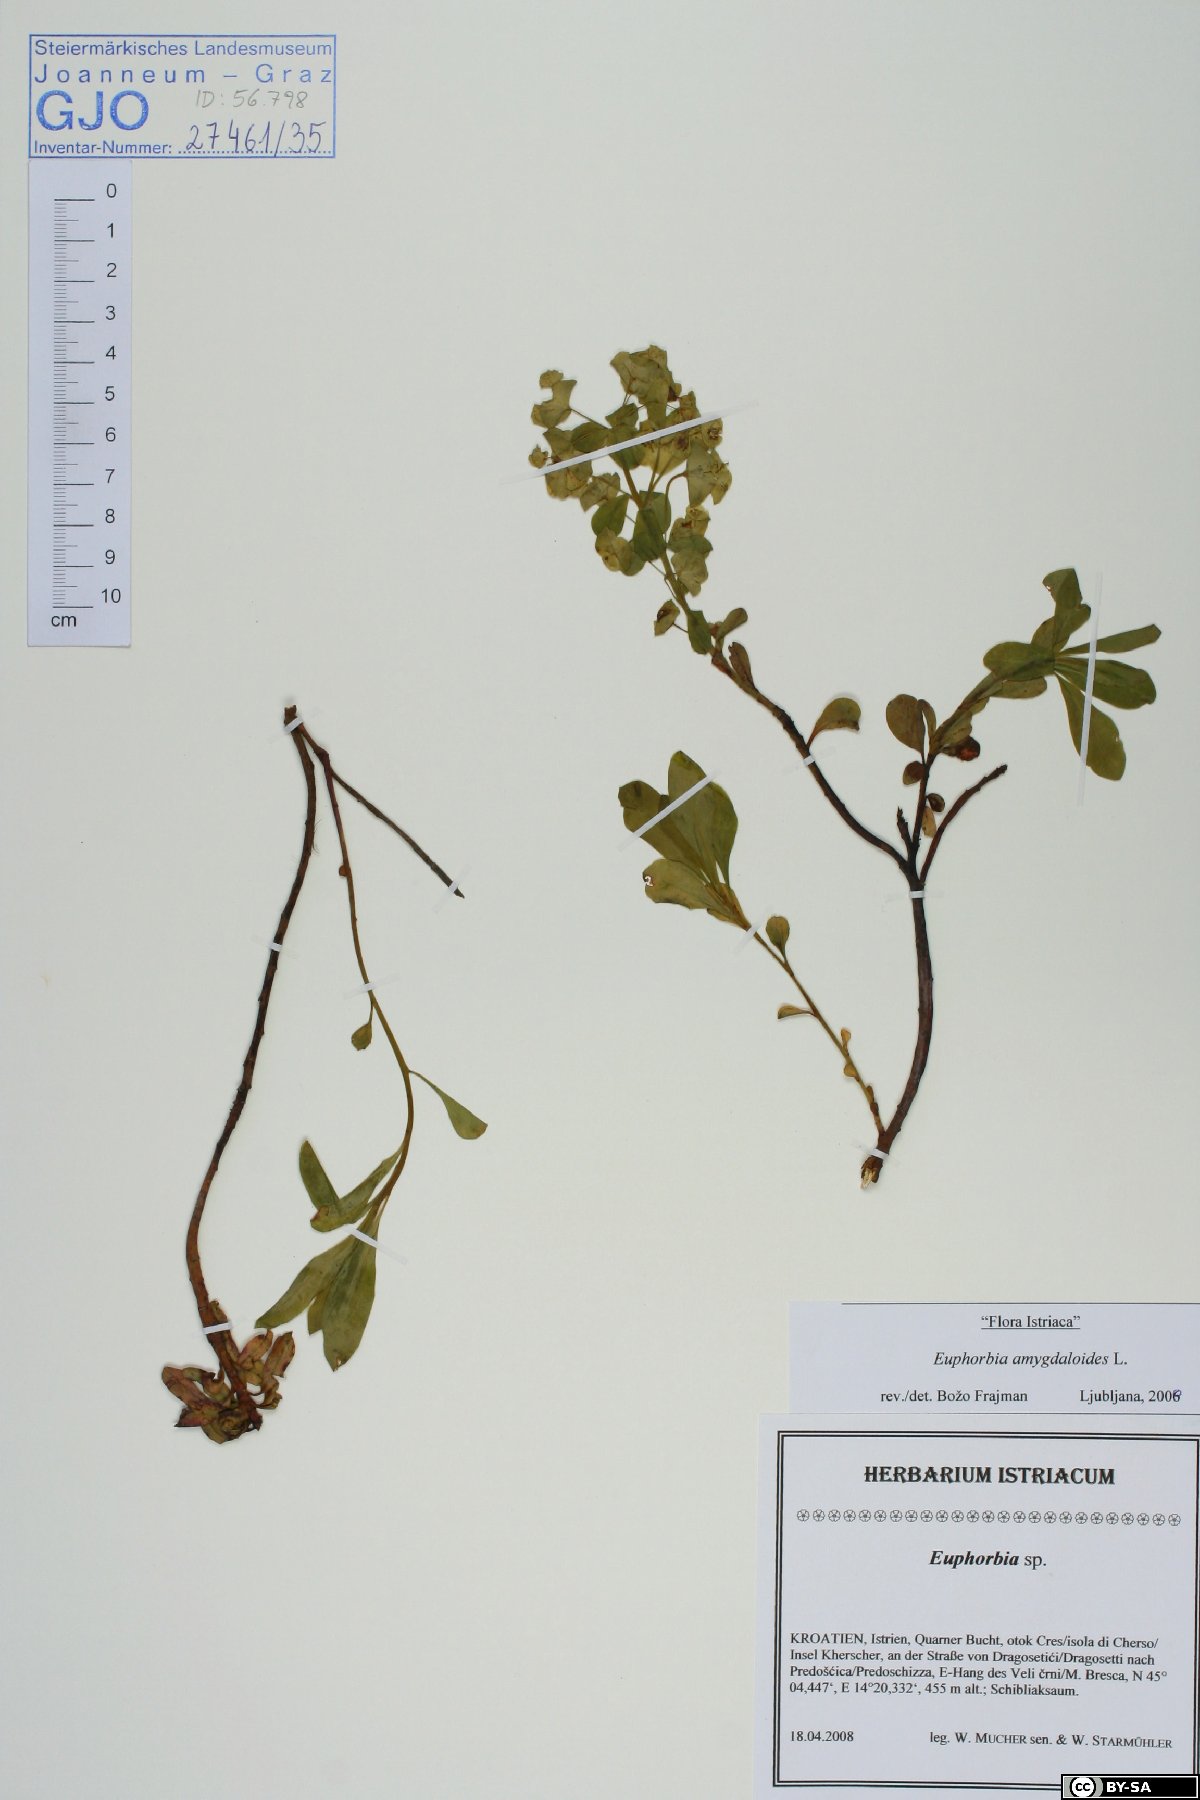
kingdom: Plantae
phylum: Tracheophyta
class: Magnoliopsida
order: Malpighiales
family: Euphorbiaceae
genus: Euphorbia
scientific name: Euphorbia amygdaloides
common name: Wood spurge
